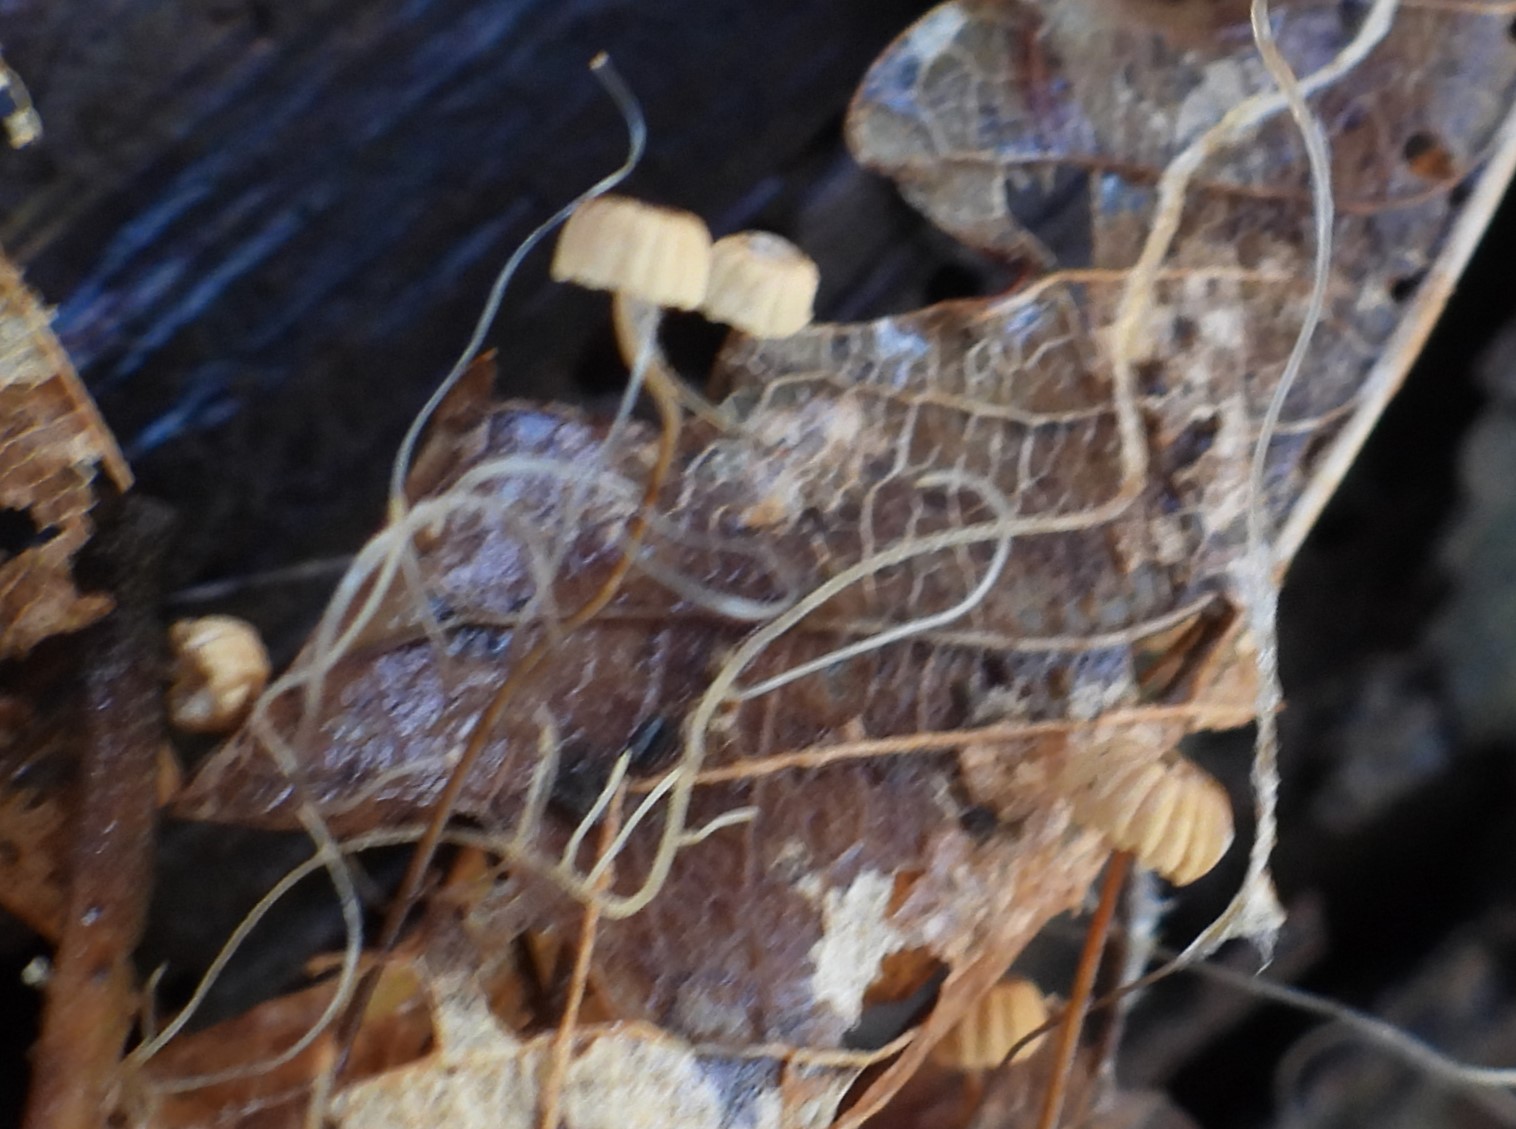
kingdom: Fungi
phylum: Basidiomycota
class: Agaricomycetes
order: Agaricales
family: Marasmiaceae
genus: Marasmius
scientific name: Marasmius bulliardii
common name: furet bruskhat
